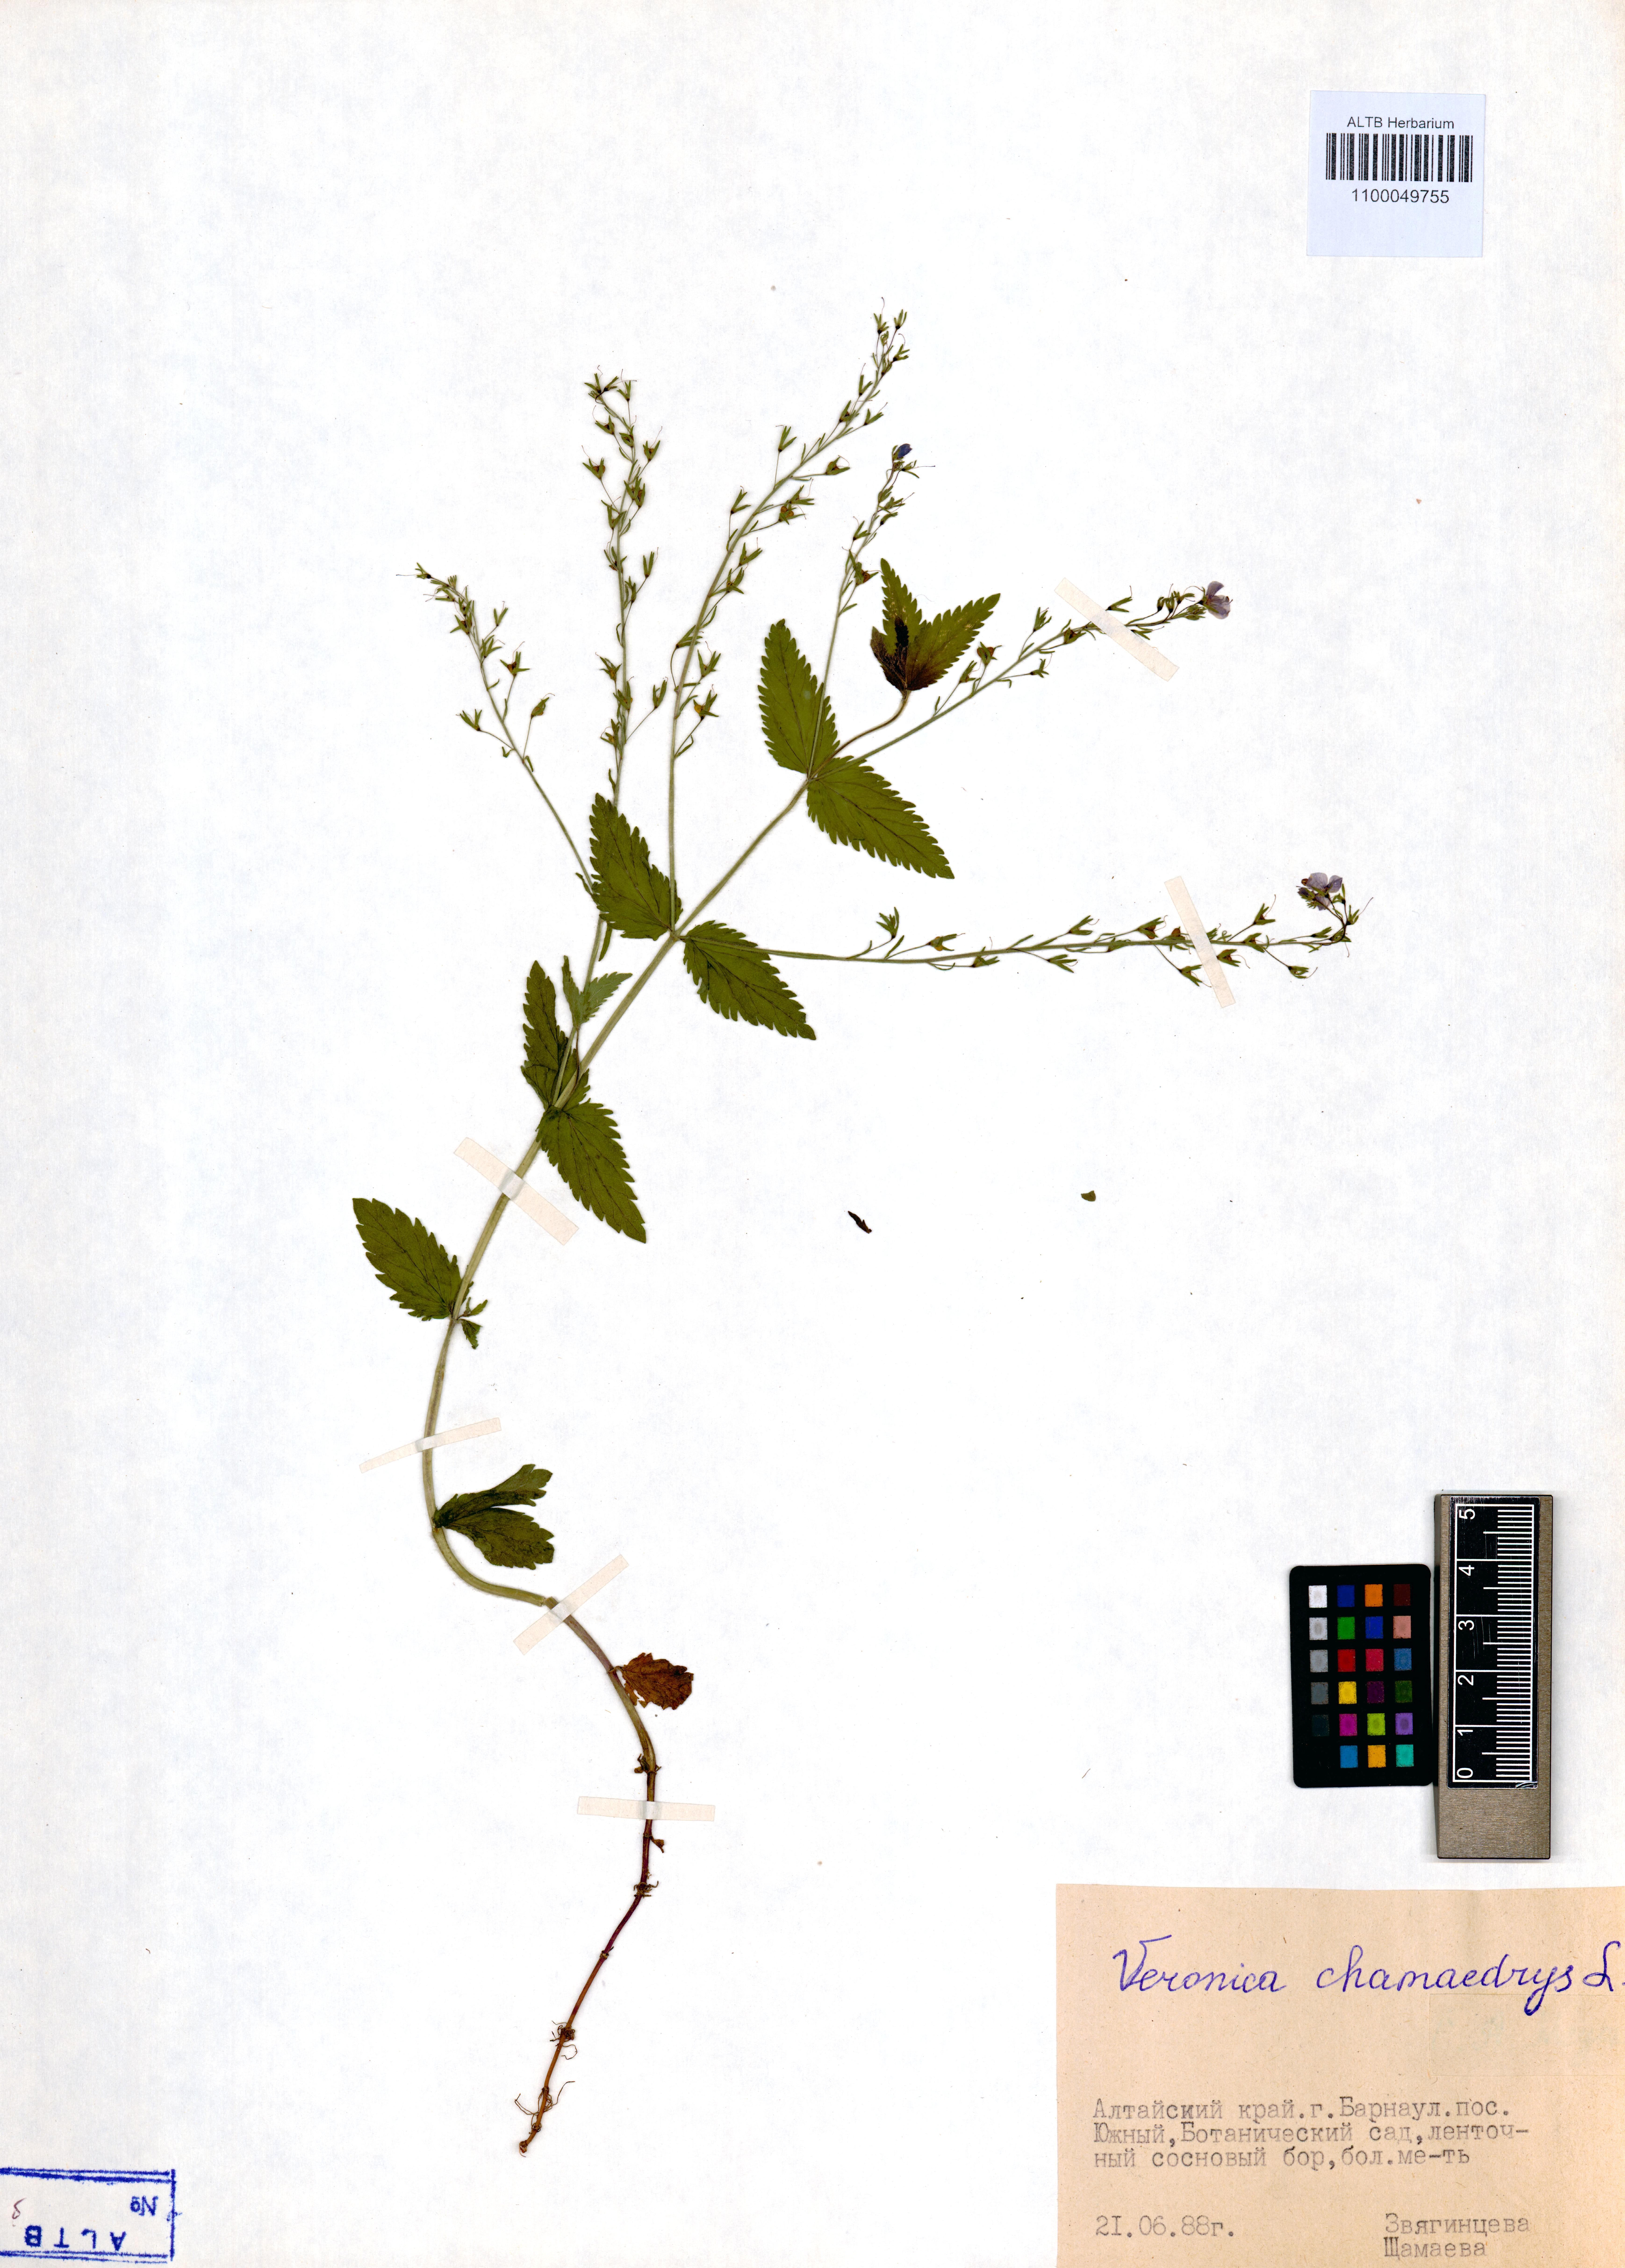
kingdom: Plantae
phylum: Tracheophyta
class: Magnoliopsida
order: Lamiales
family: Plantaginaceae
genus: Veronica
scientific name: Veronica chamaedrys
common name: Germander speedwell
